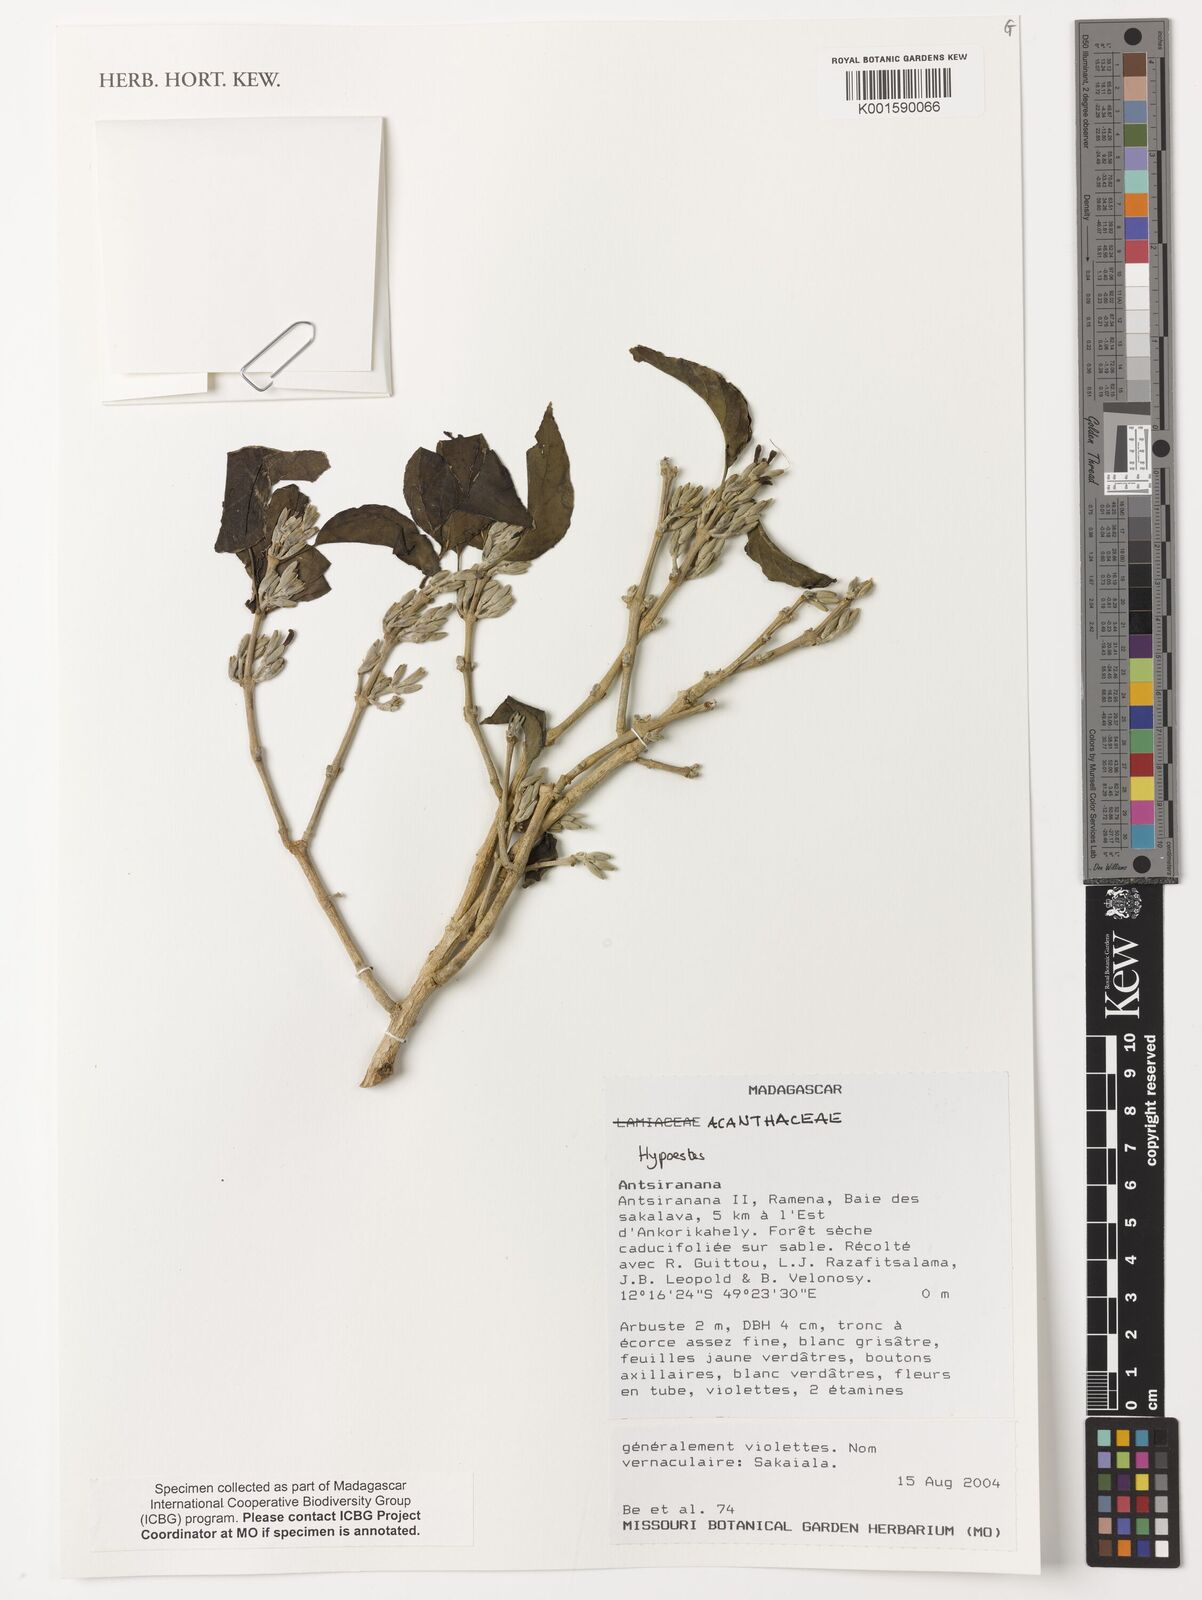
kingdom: Plantae
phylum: Tracheophyta
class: Magnoliopsida
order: Lamiales
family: Acanthaceae
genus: Hypoestes
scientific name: Hypoestes
